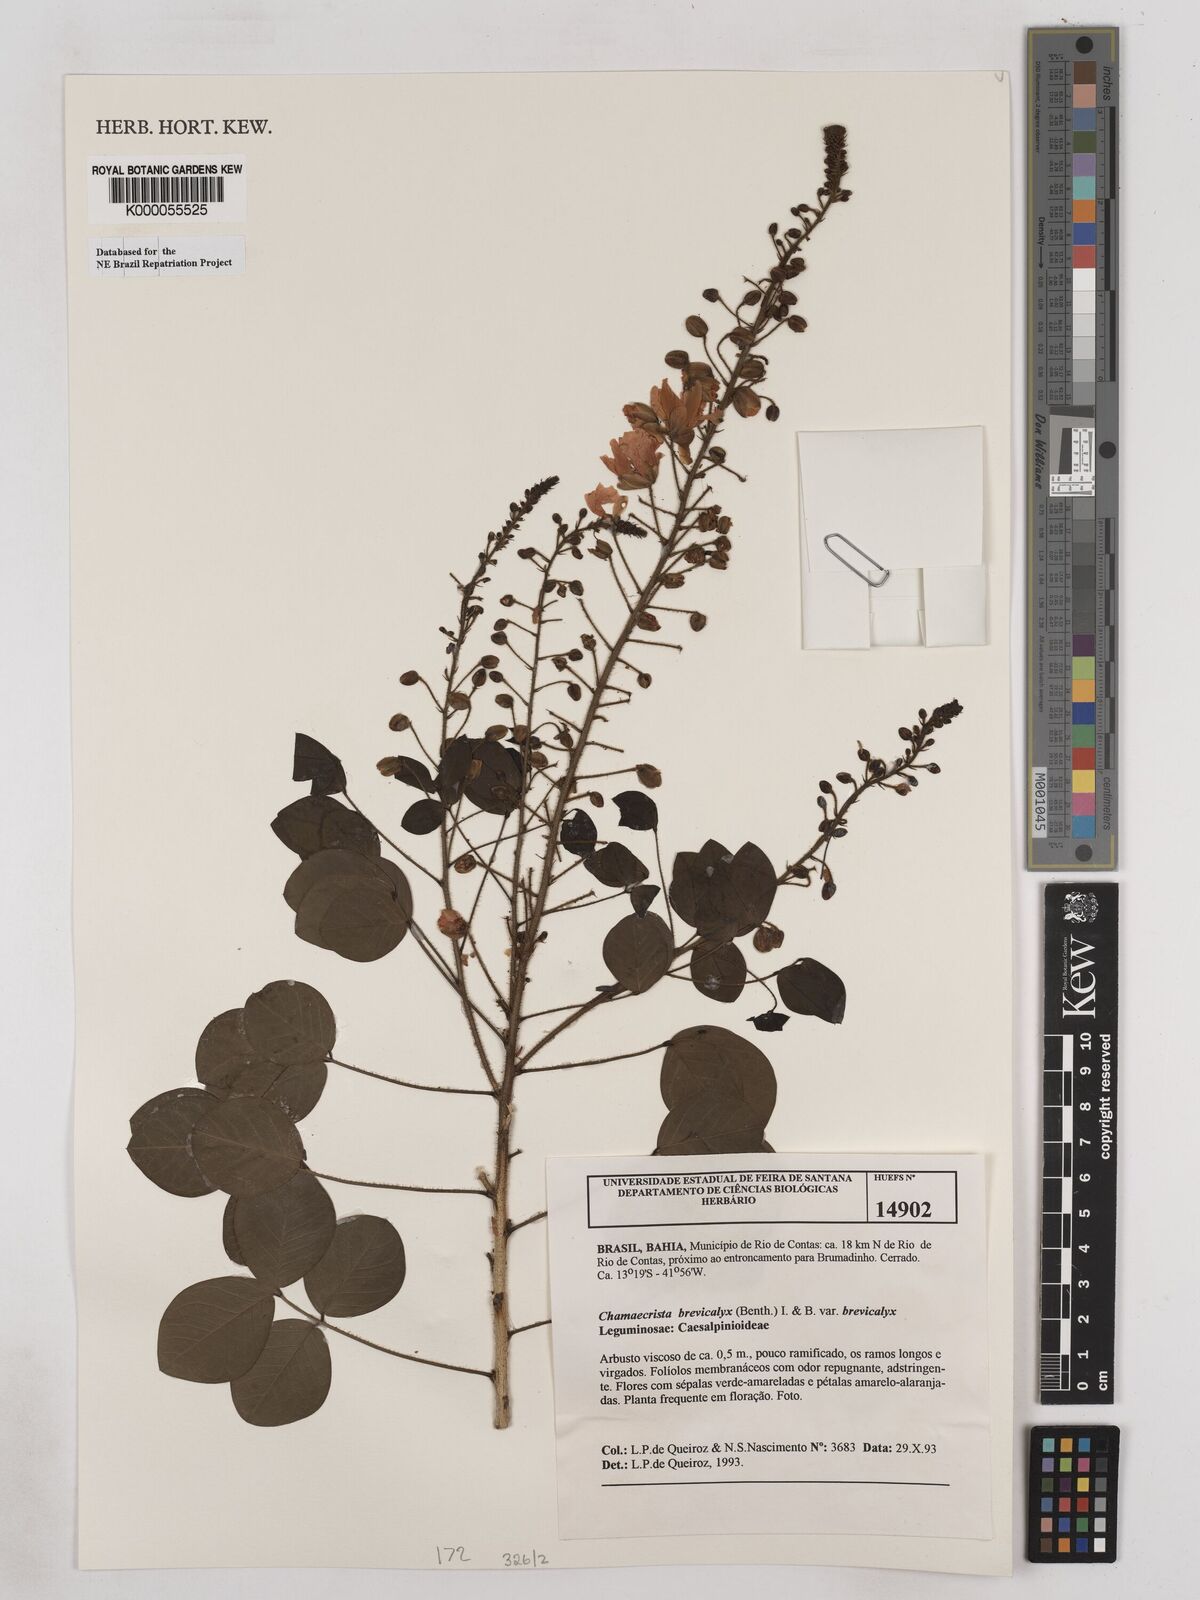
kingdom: Plantae
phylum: Tracheophyta
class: Magnoliopsida
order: Fabales
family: Fabaceae
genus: Chamaecrista
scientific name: Chamaecrista brevicalyx
